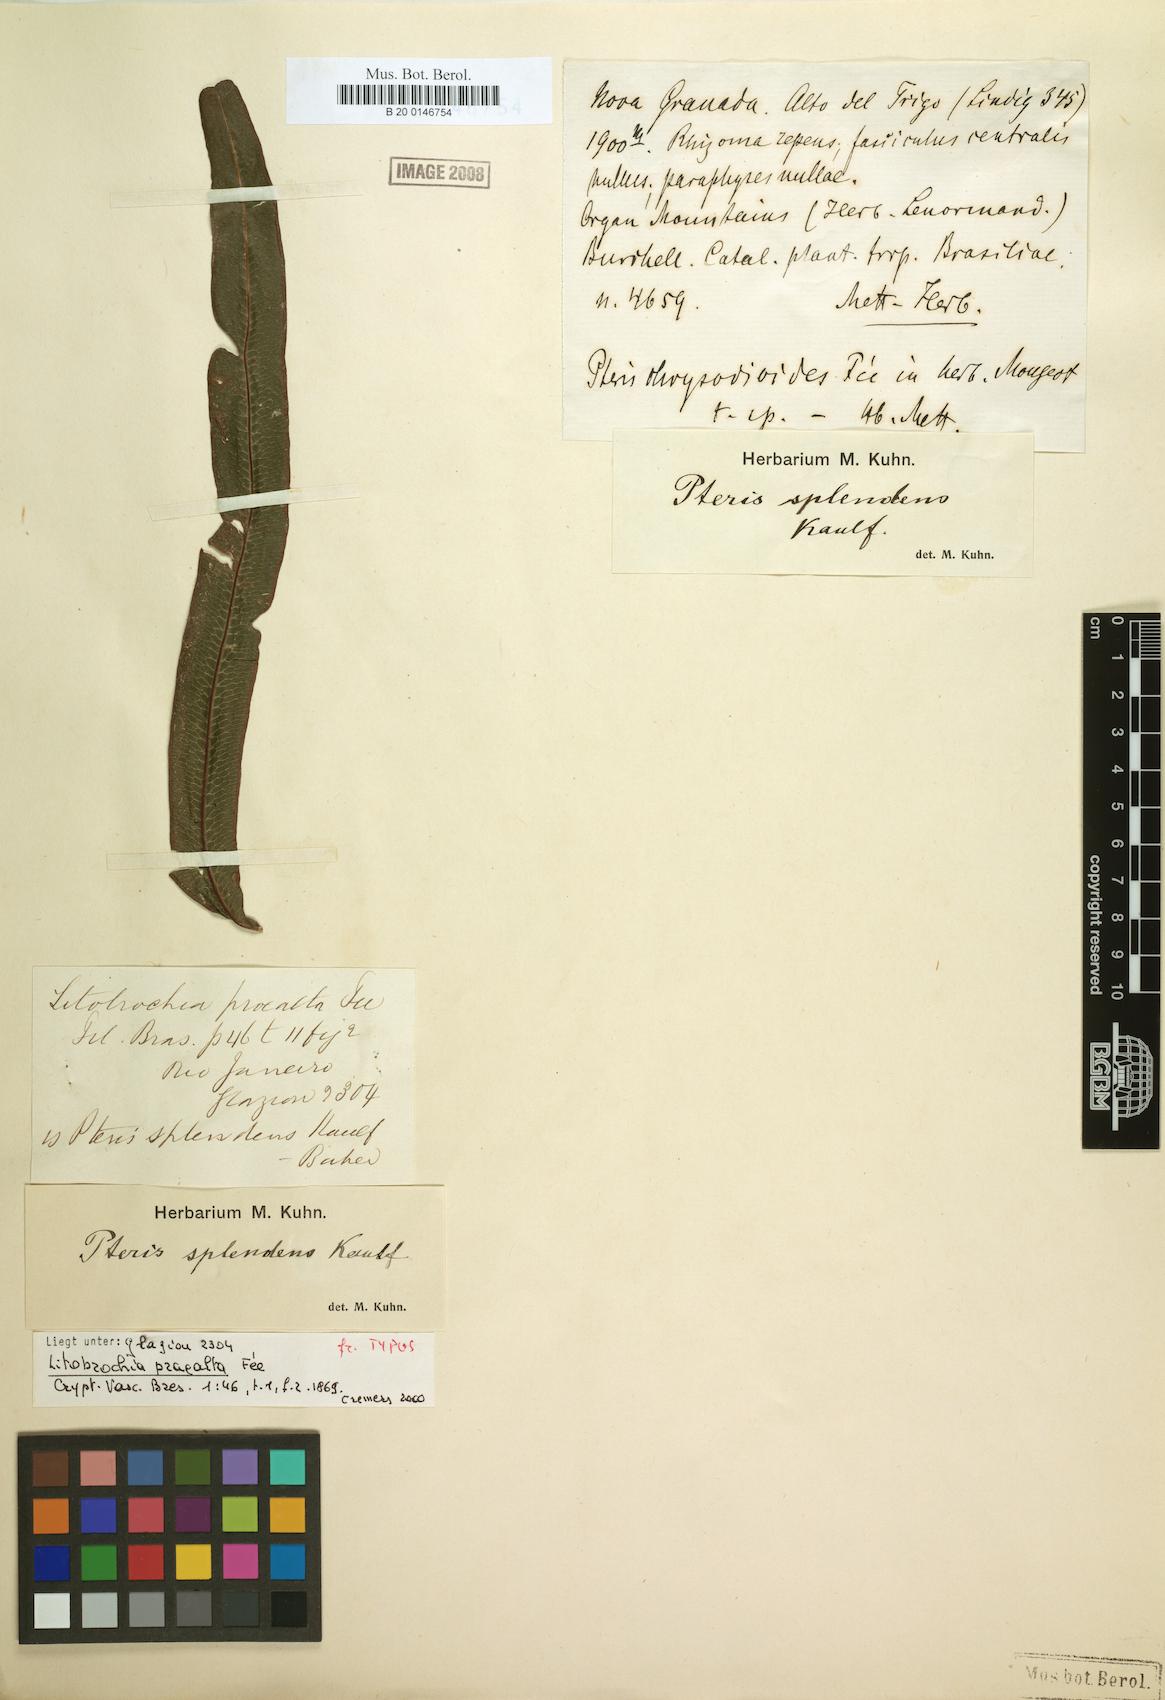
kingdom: Plantae
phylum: Tracheophyta
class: Polypodiopsida
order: Polypodiales
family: Pteridaceae
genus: Pteris
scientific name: Pteris splendens
